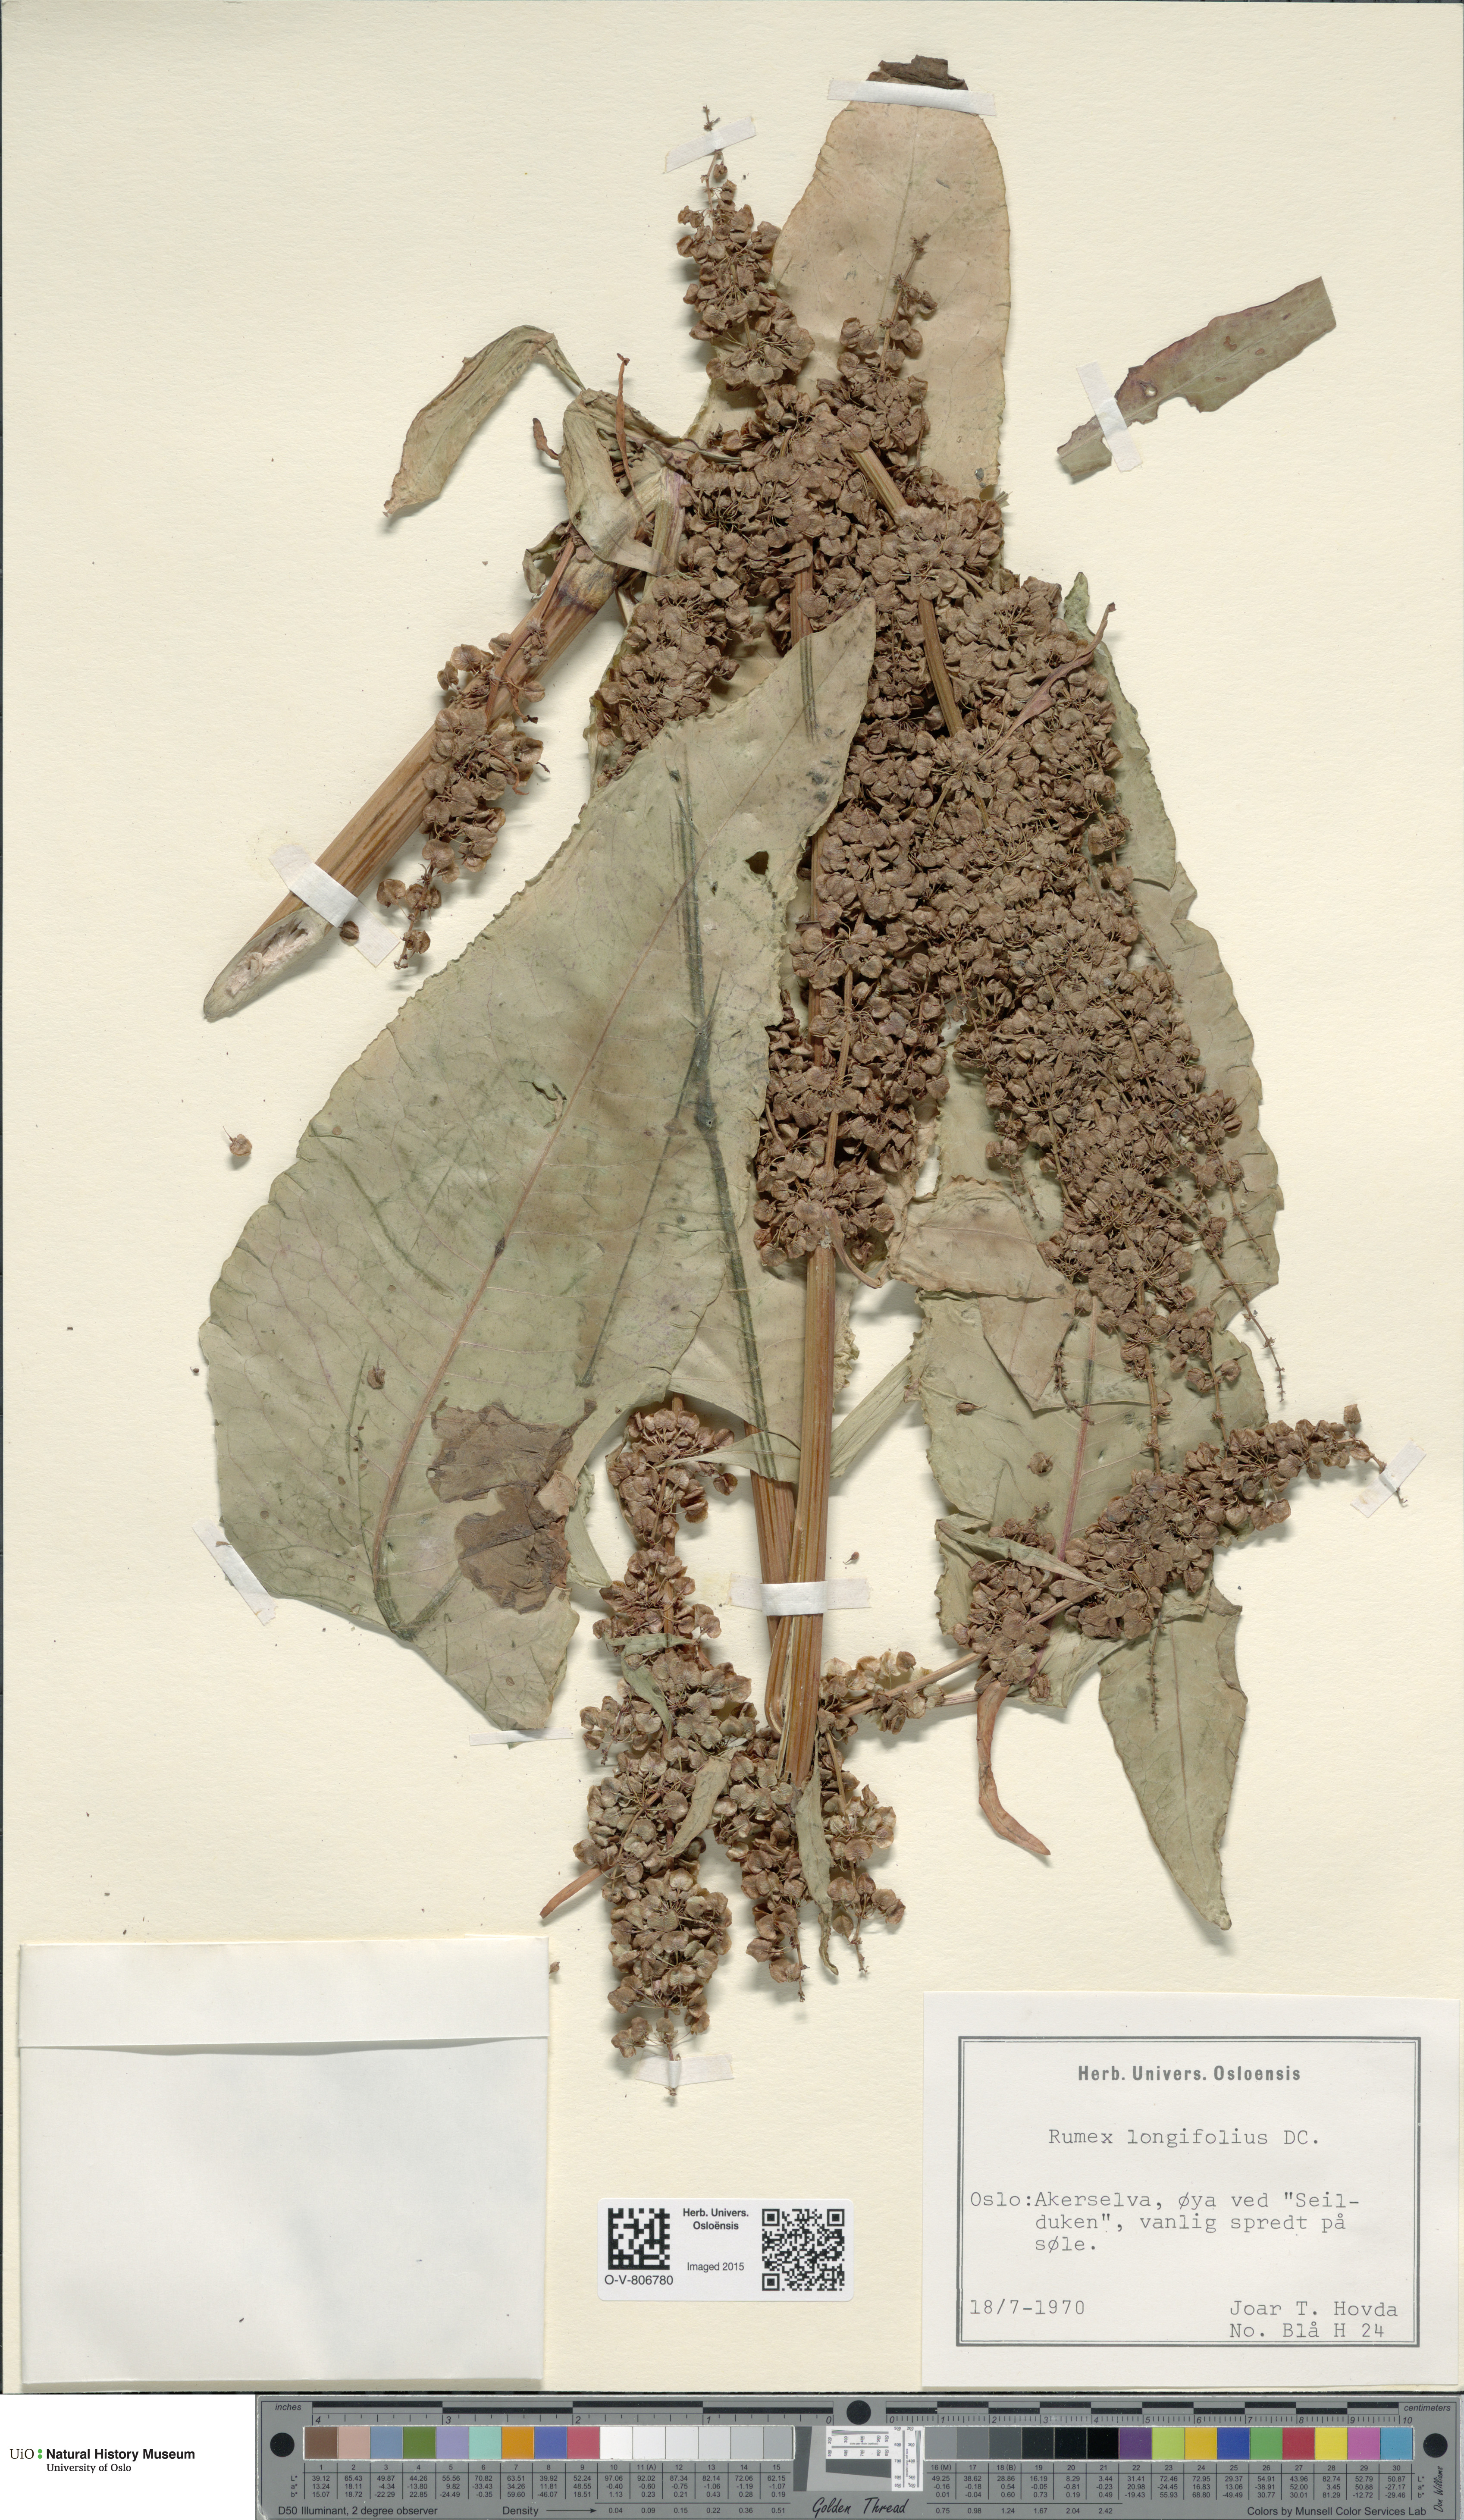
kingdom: Plantae
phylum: Tracheophyta
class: Magnoliopsida
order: Caryophyllales
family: Polygonaceae
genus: Rumex
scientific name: Rumex longifolius
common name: Dooryard dock
